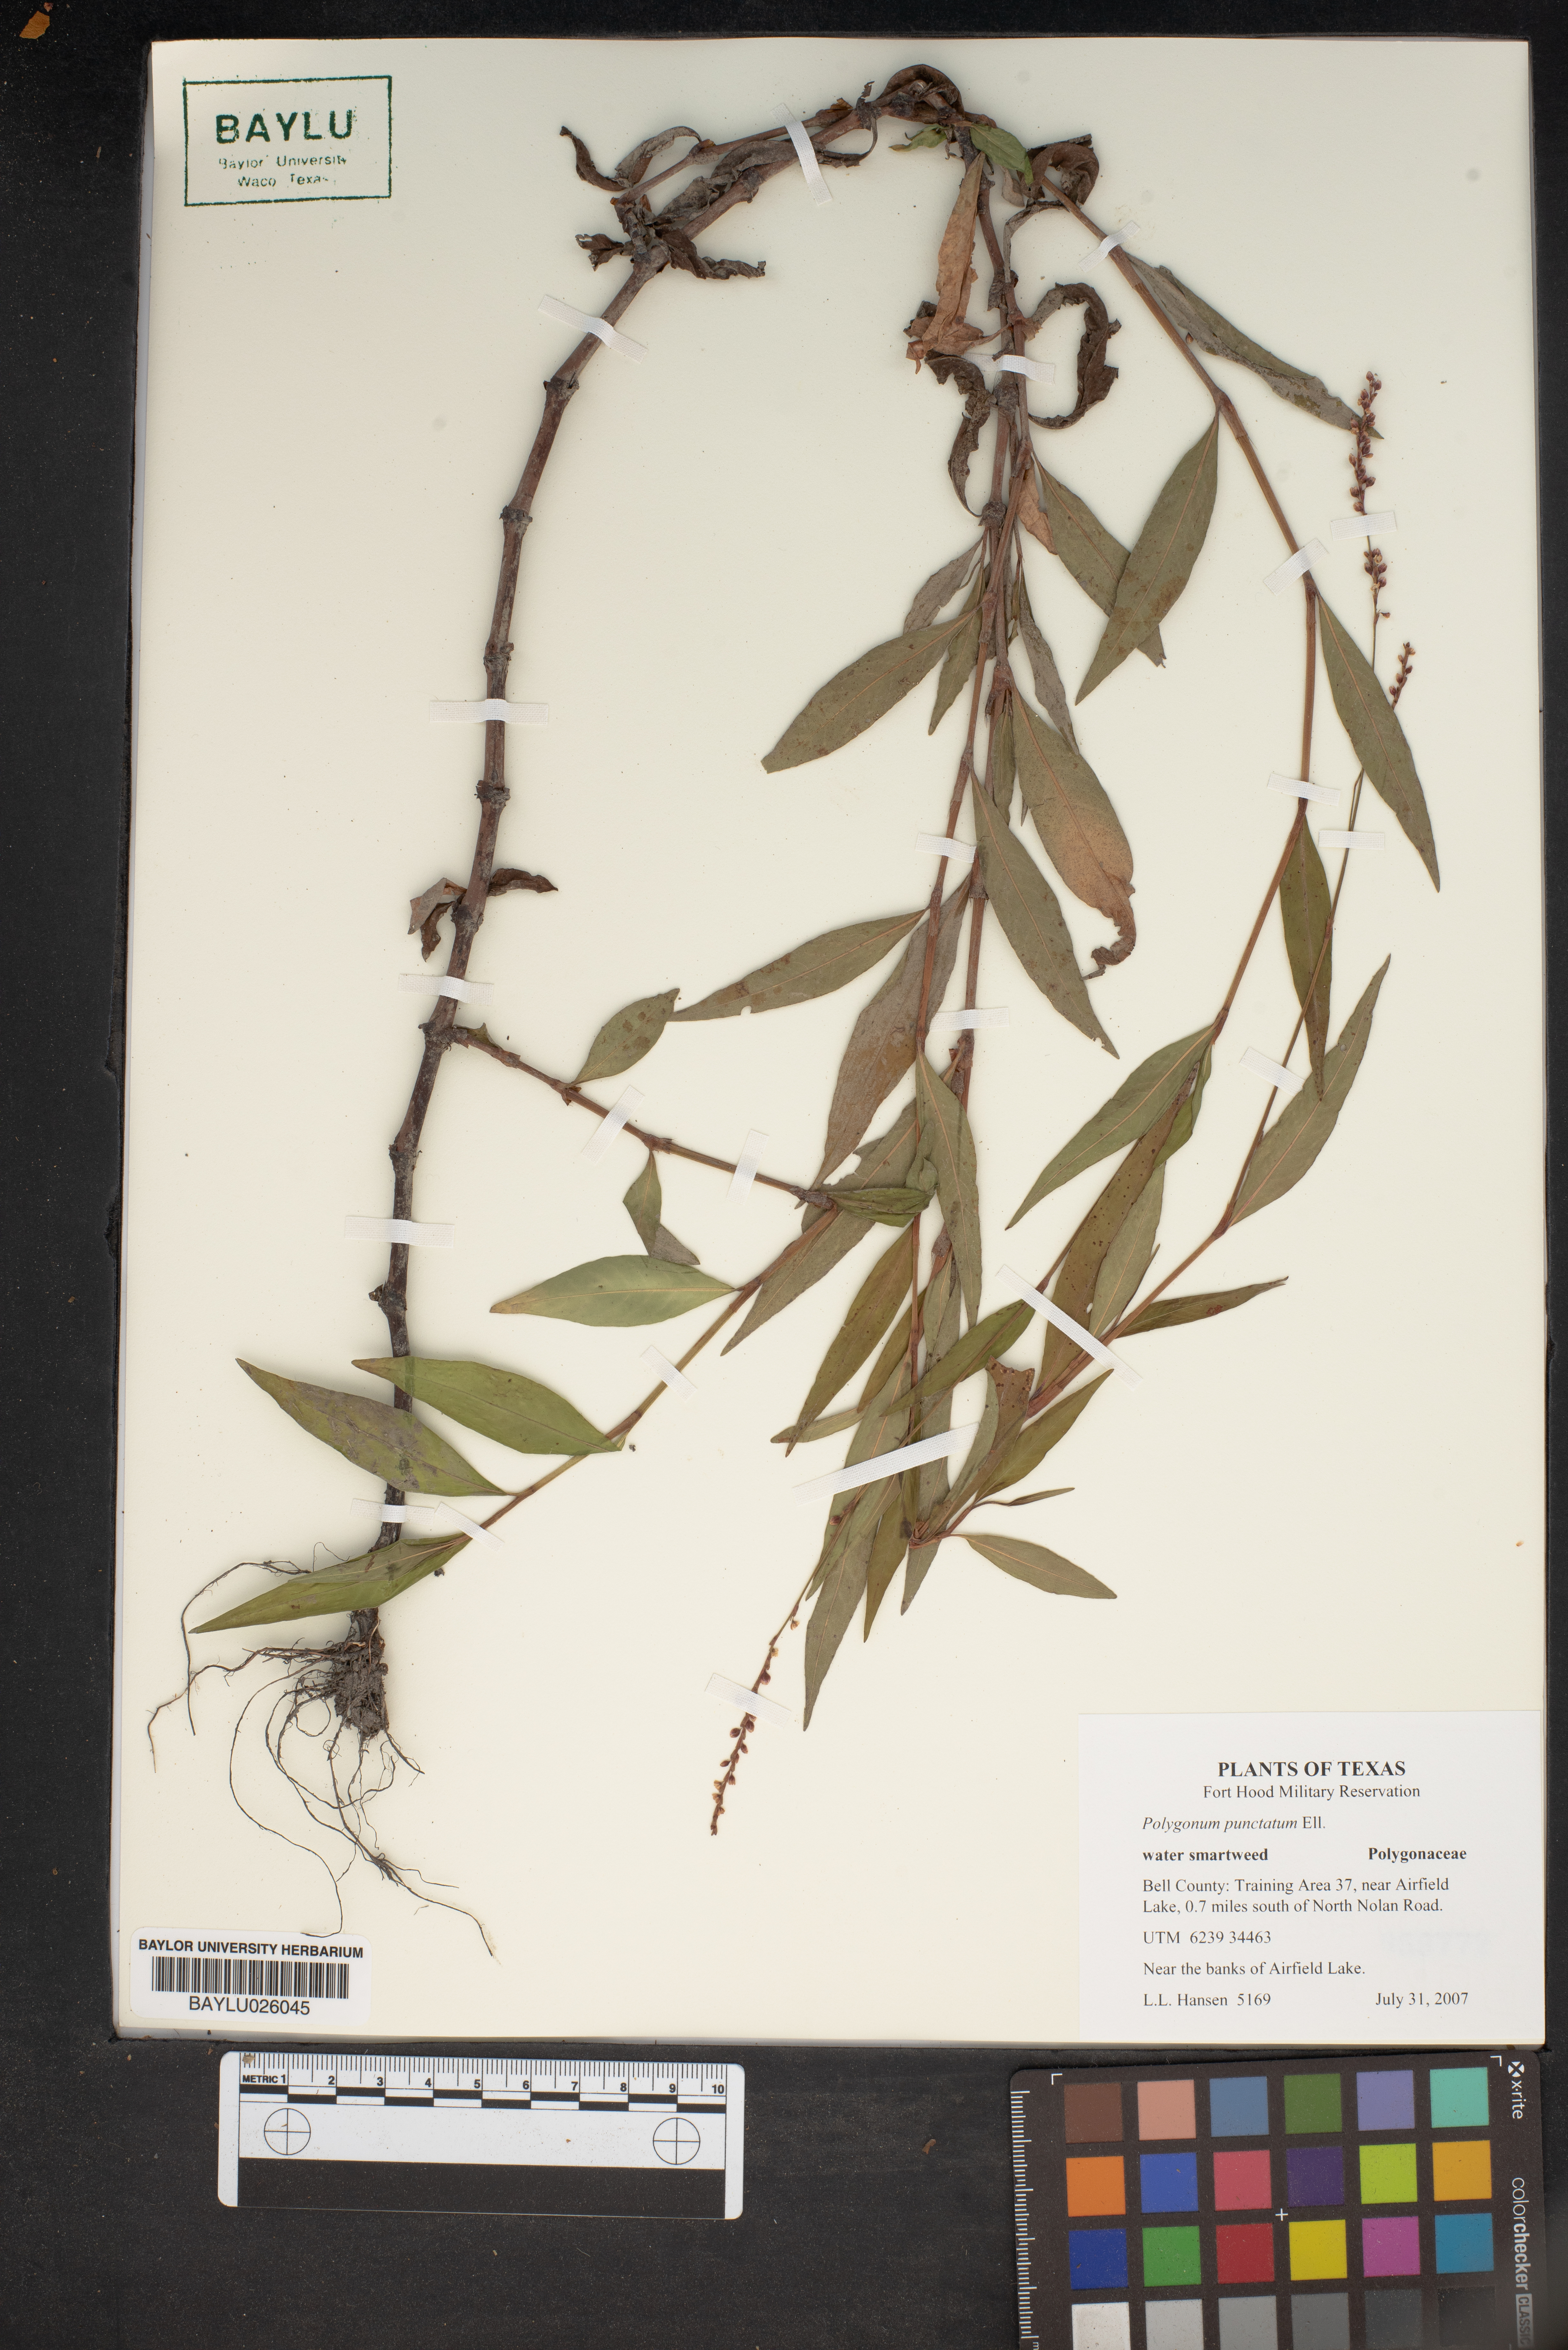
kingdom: Plantae
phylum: Tracheophyta
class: Magnoliopsida
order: Caryophyllales
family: Polygonaceae
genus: Persicaria
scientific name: Persicaria punctata
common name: Dotted smartweed
